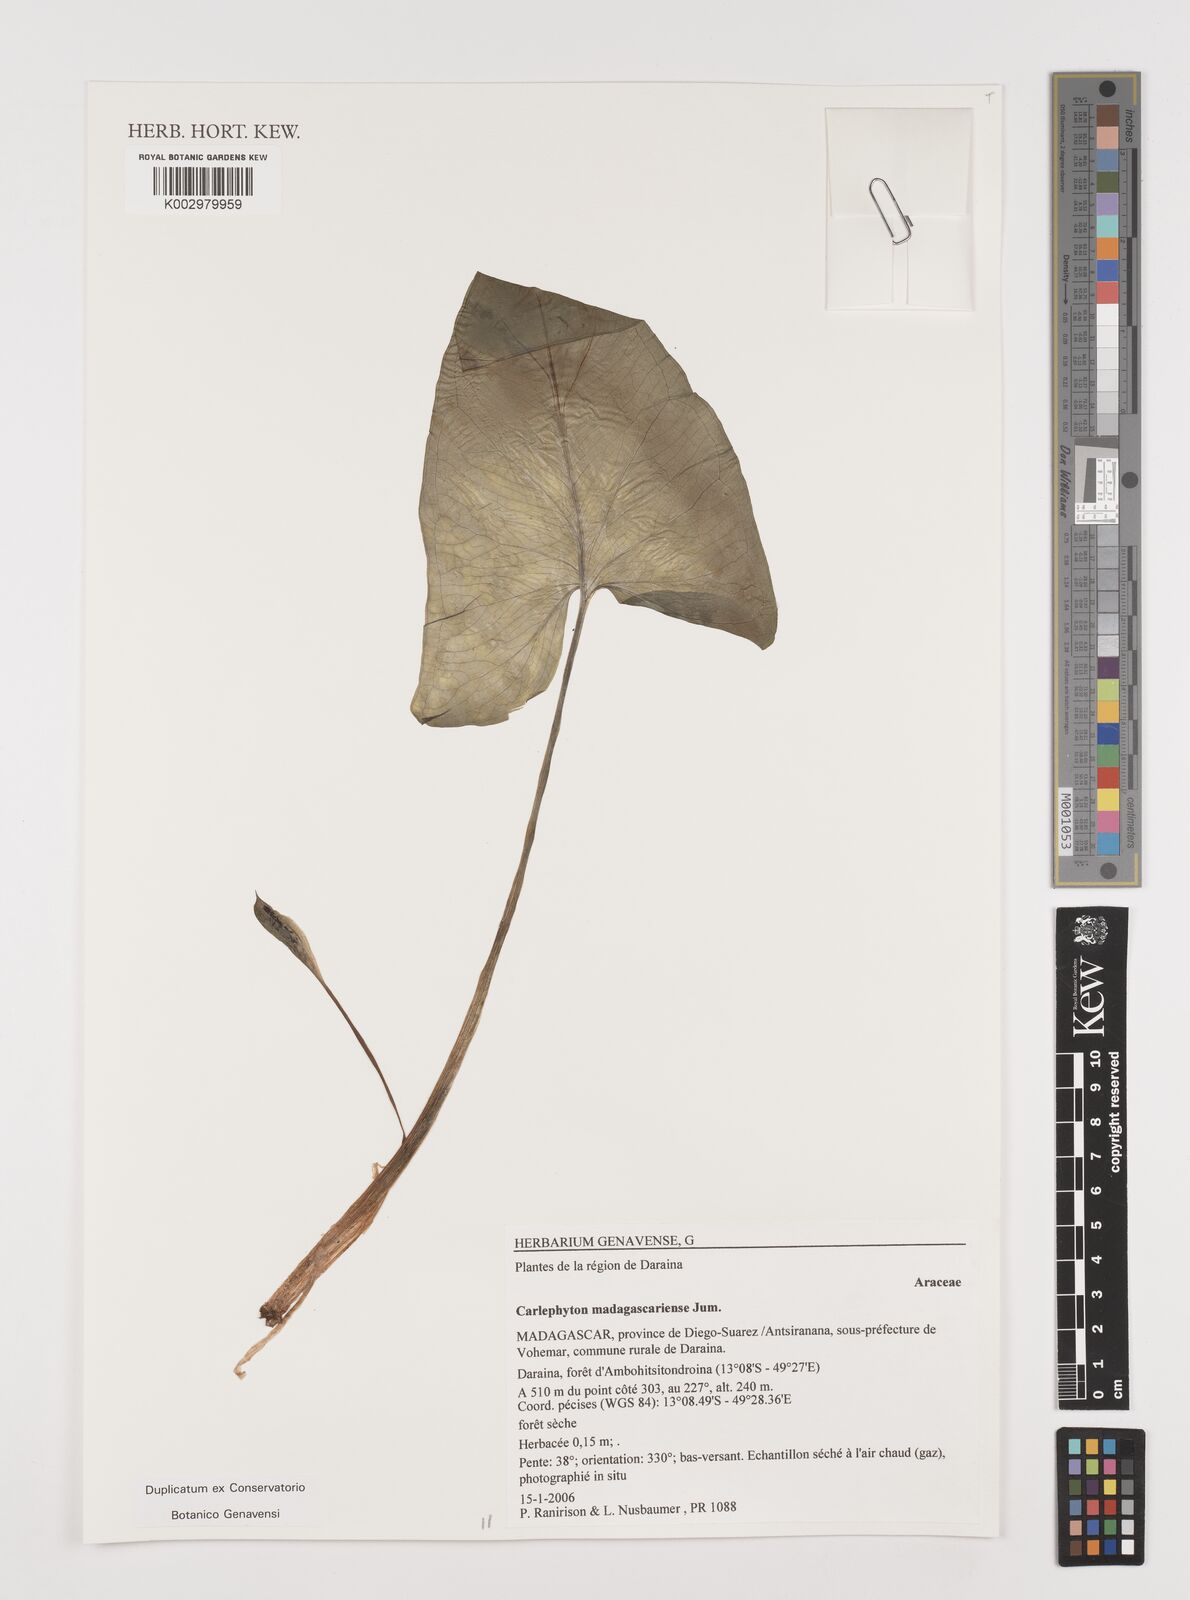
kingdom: Plantae
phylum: Tracheophyta
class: Liliopsida
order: Alismatales
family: Araceae
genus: Carlephyton
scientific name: Carlephyton madagascariense
